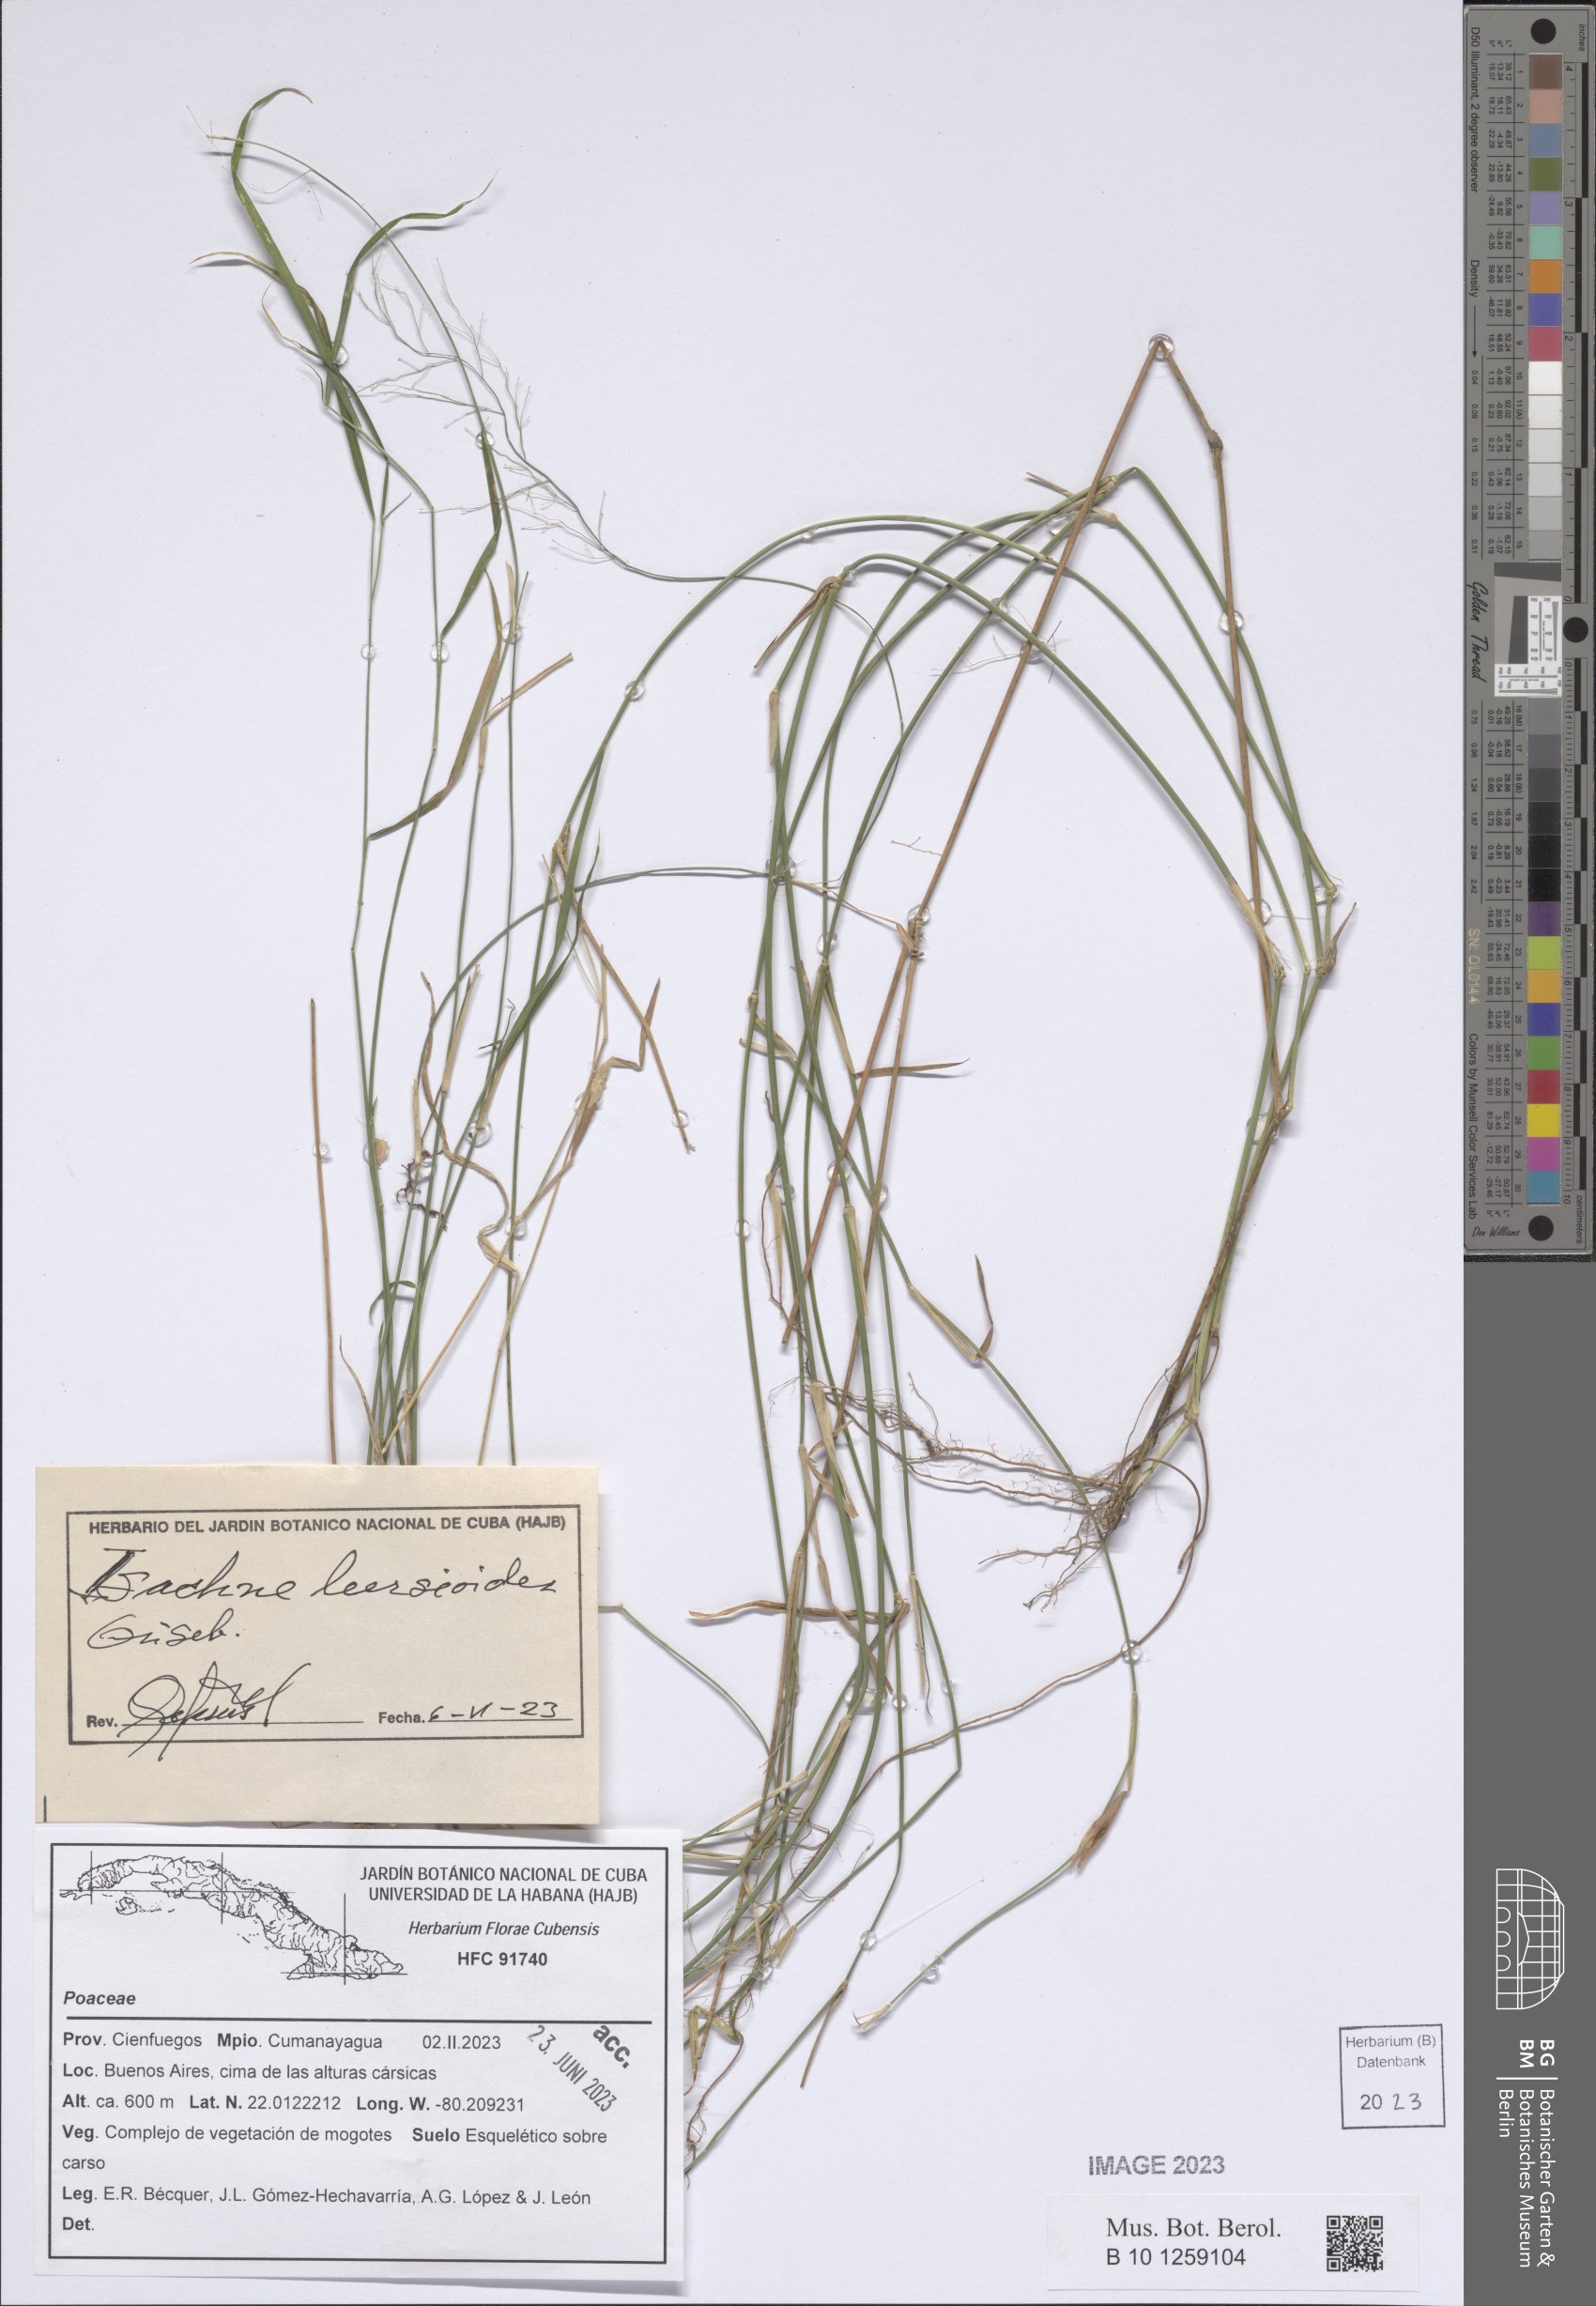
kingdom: Plantae
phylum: Tracheophyta
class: Liliopsida
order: Poales
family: Poaceae
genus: Isachne
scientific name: Isachne leersioides
